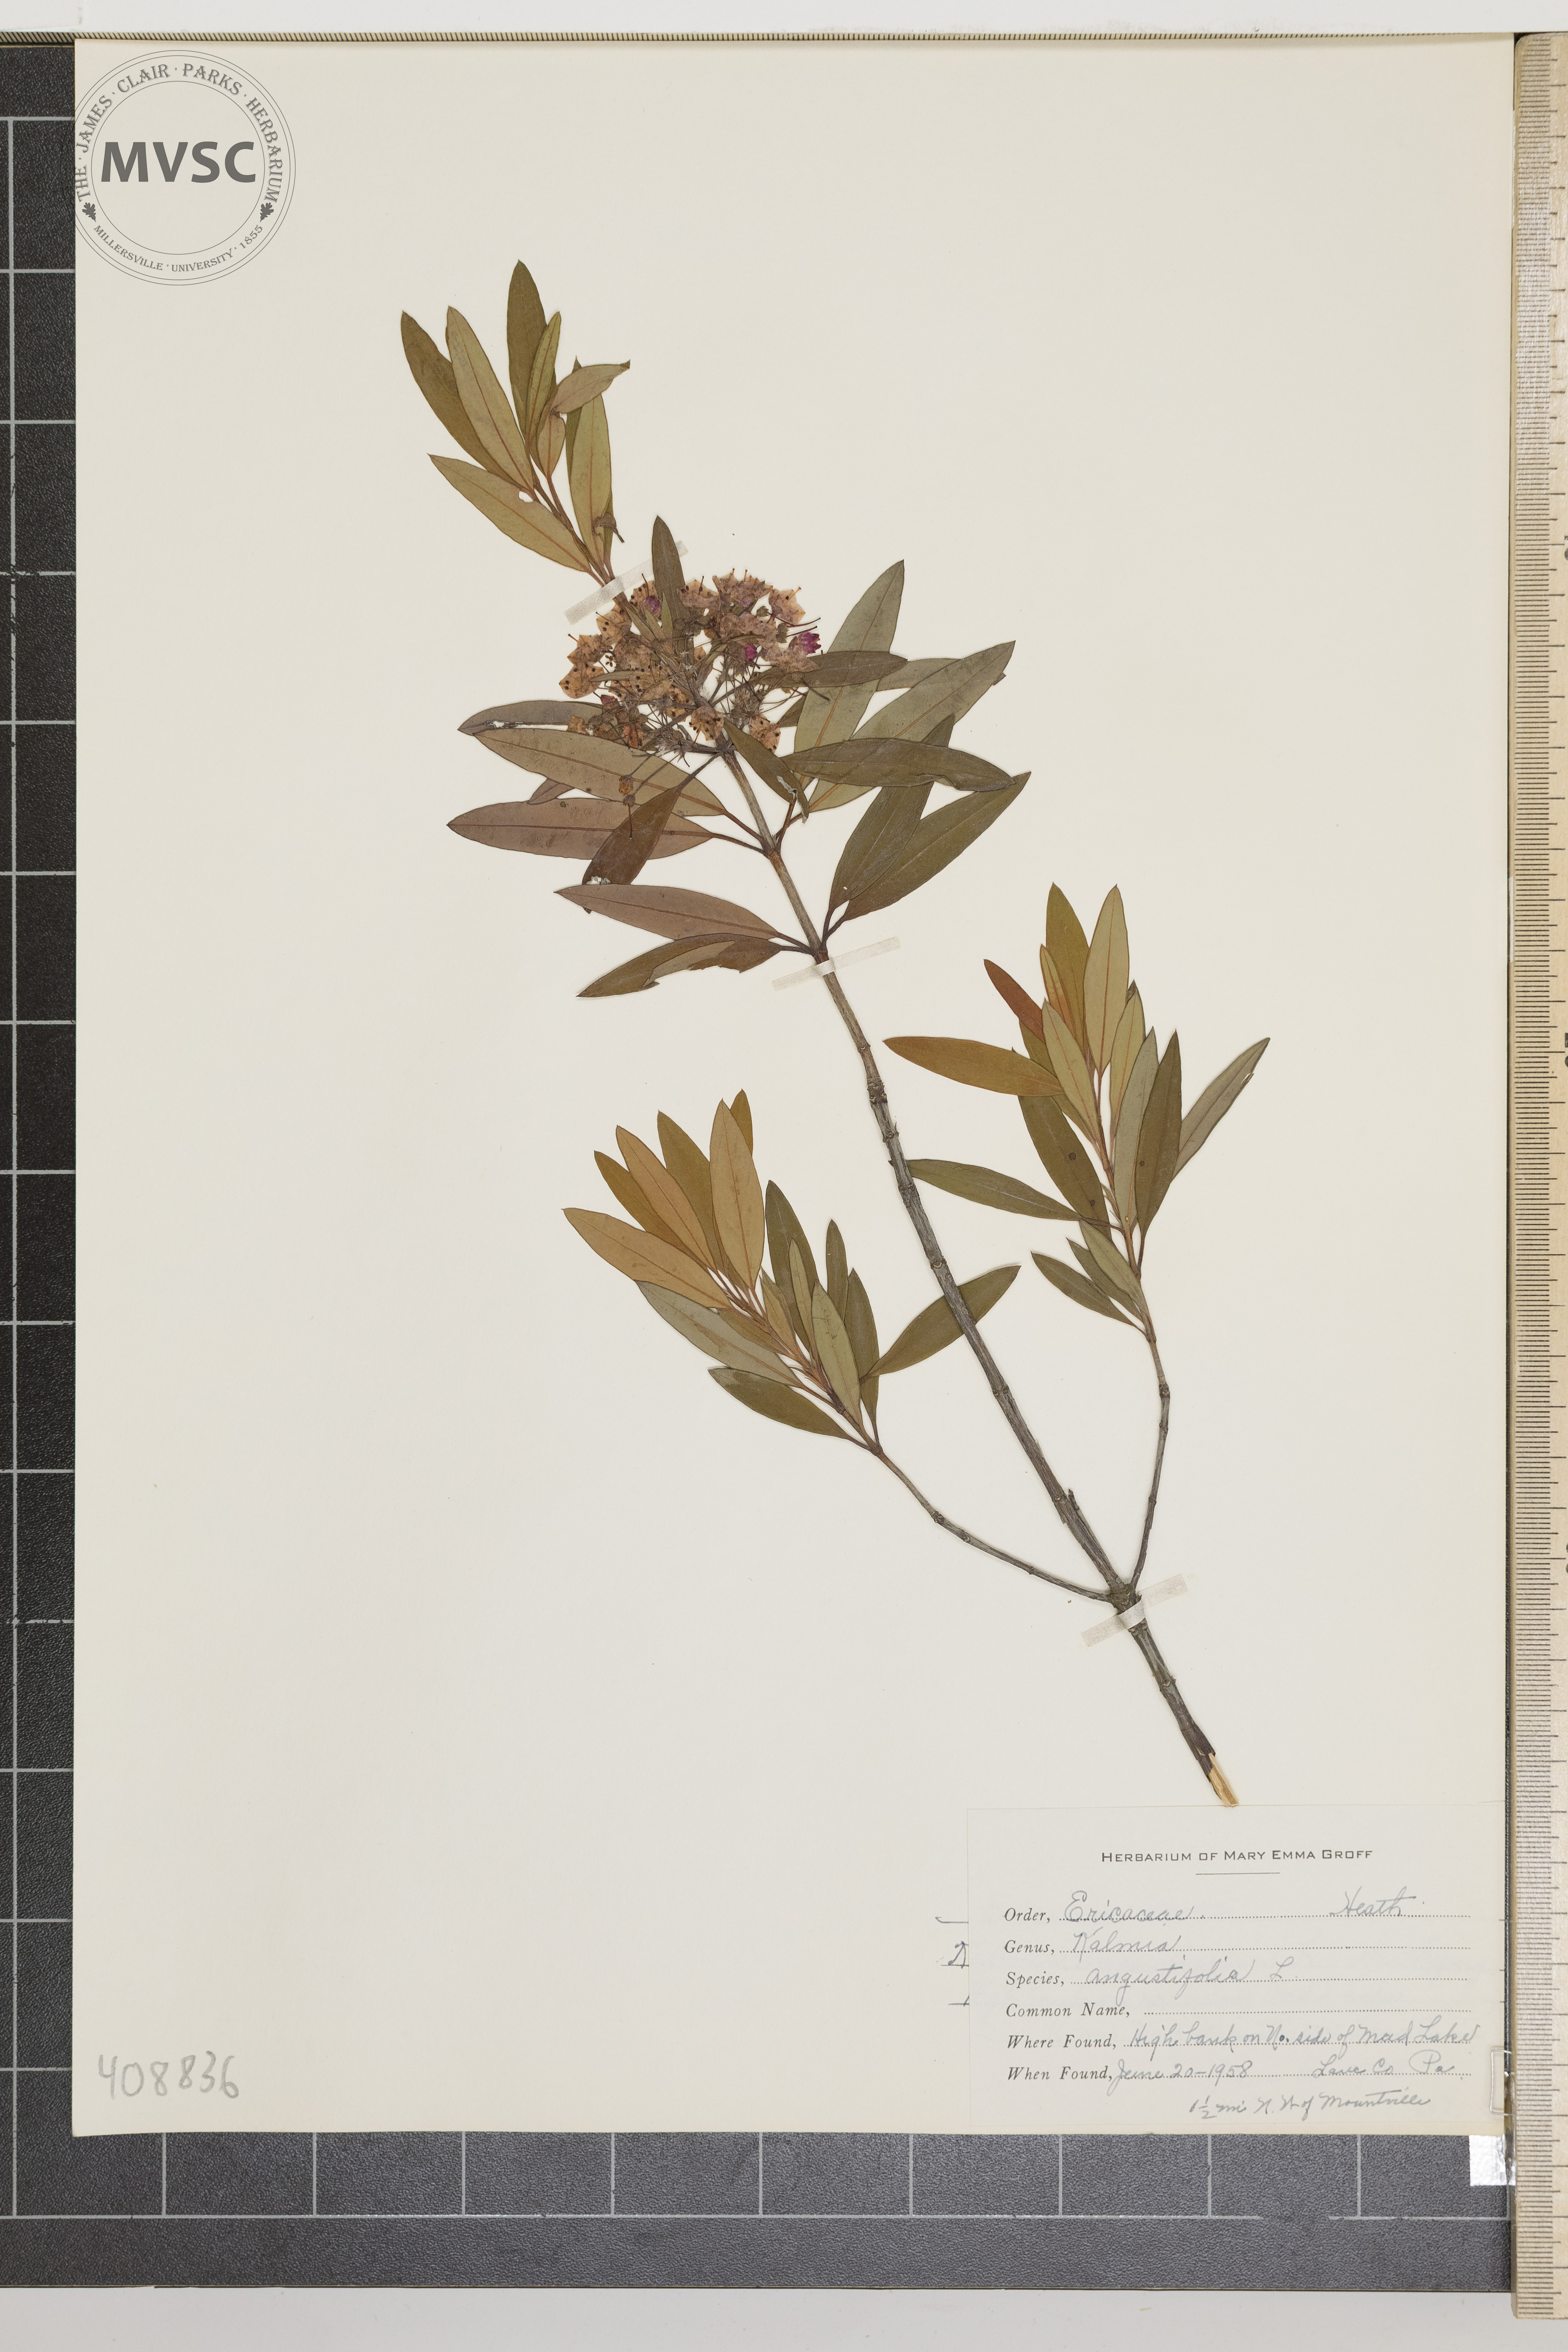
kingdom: Plantae
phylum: Tracheophyta
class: Magnoliopsida
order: Ericales
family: Ericaceae
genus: Kalmia
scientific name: Kalmia angustifolia
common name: sheep laurel
